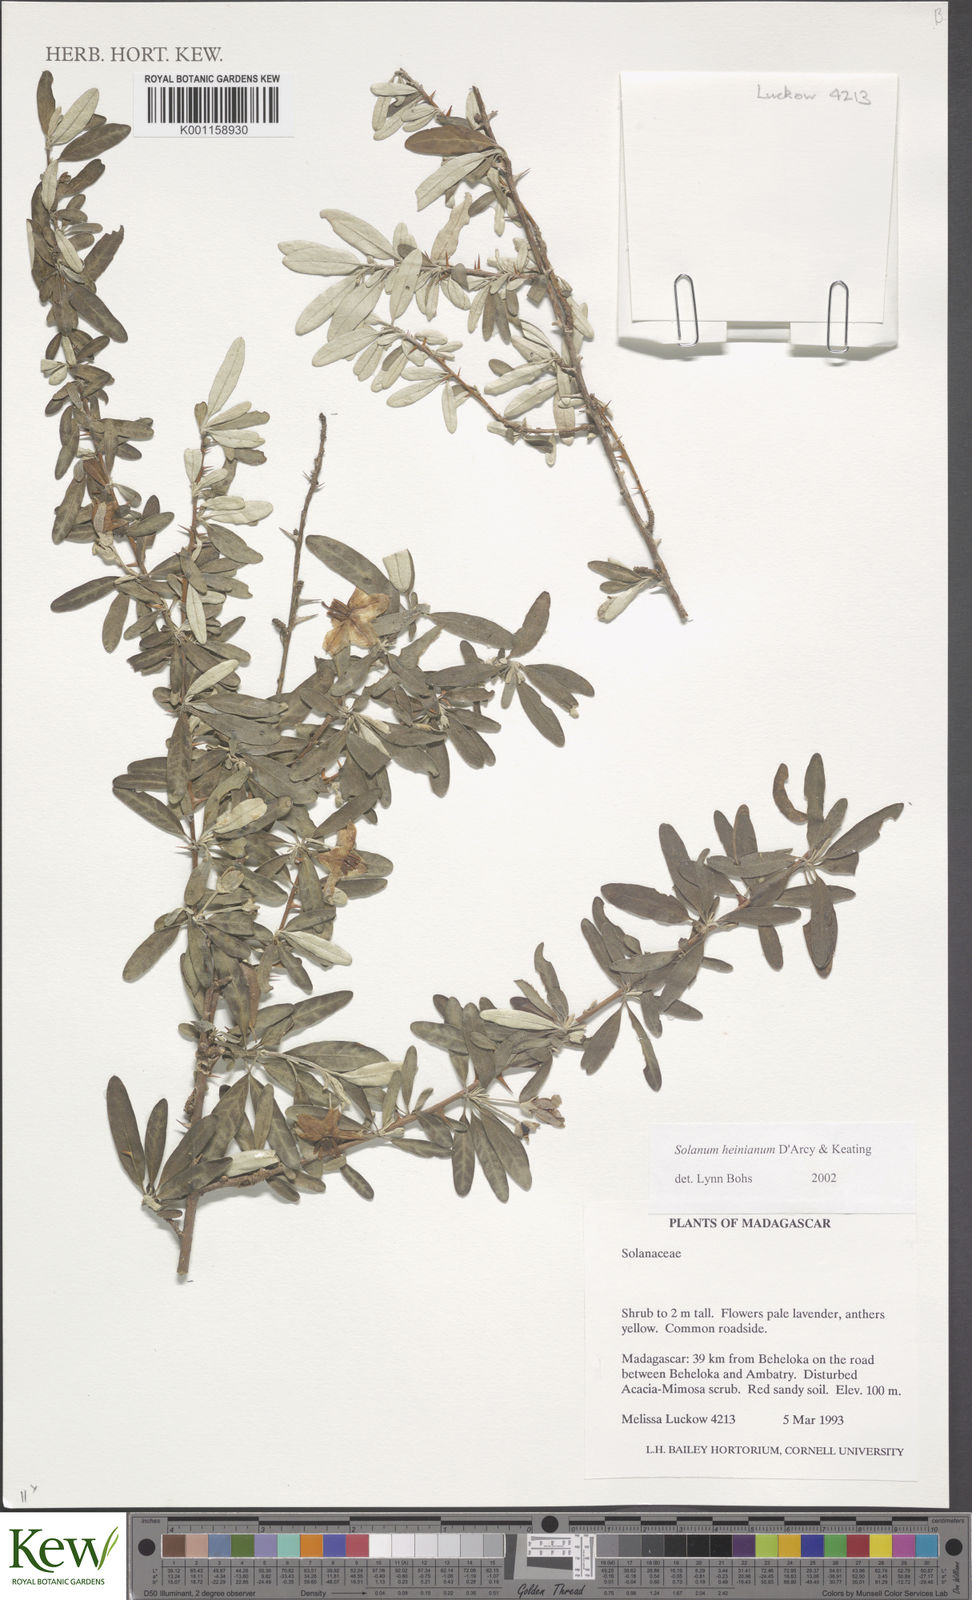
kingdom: Plantae
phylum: Tracheophyta
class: Magnoliopsida
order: Solanales
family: Solanaceae
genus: Solanum
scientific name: Solanum heinianum
